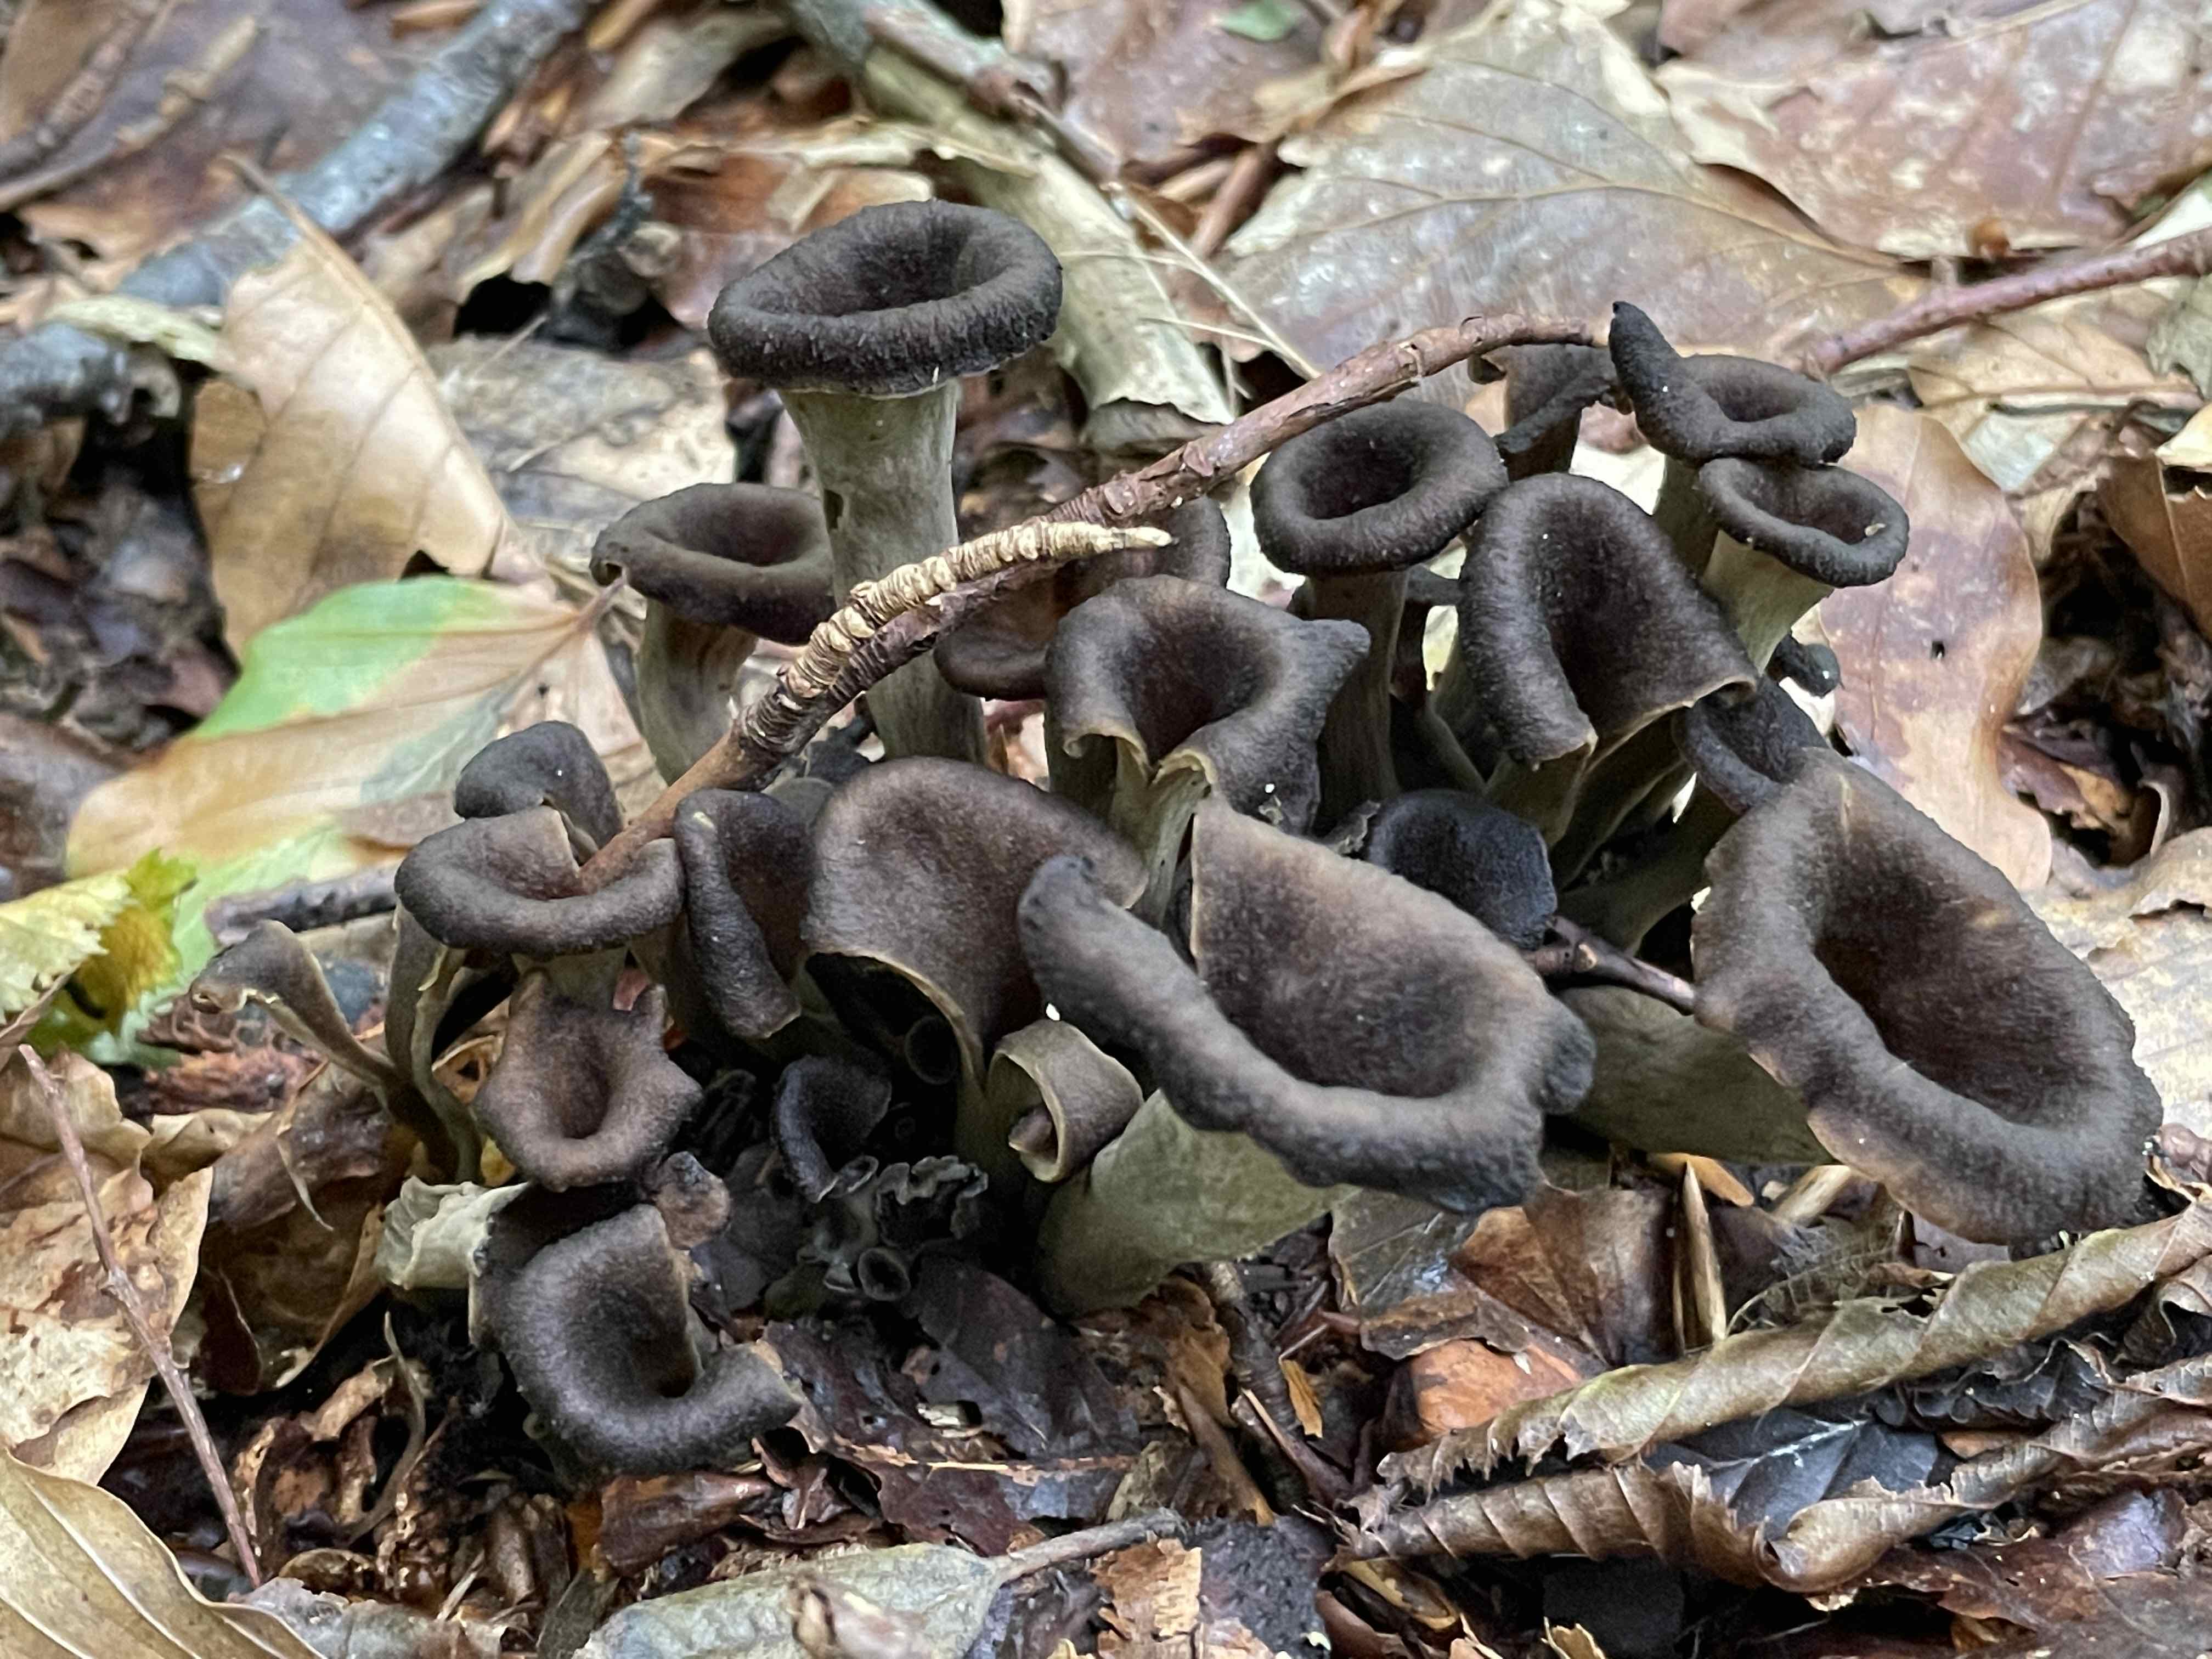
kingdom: Fungi
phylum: Basidiomycota
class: Agaricomycetes
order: Cantharellales
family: Hydnaceae
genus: Craterellus
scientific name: Craterellus cornucopioides
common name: trompetsvamp
